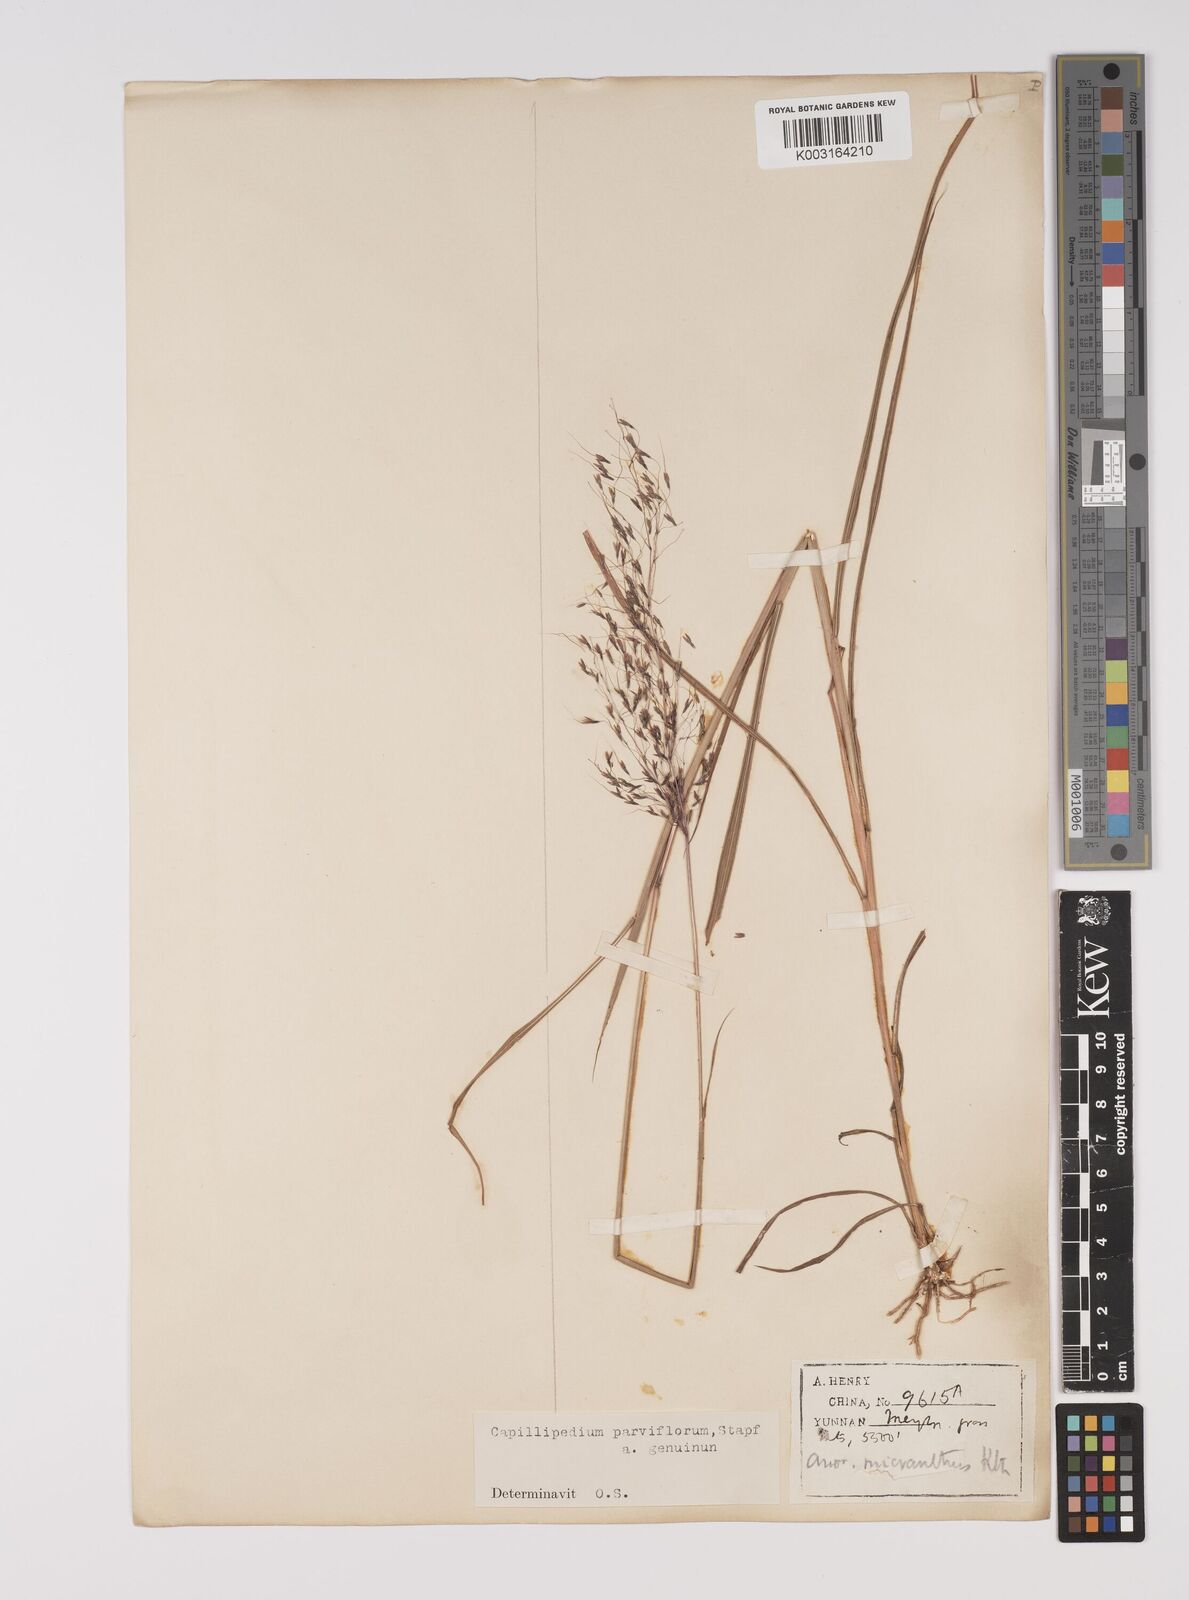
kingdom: Plantae
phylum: Tracheophyta
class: Liliopsida
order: Poales
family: Poaceae
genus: Capillipedium
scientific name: Capillipedium parviflorum
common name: Golden-beard
